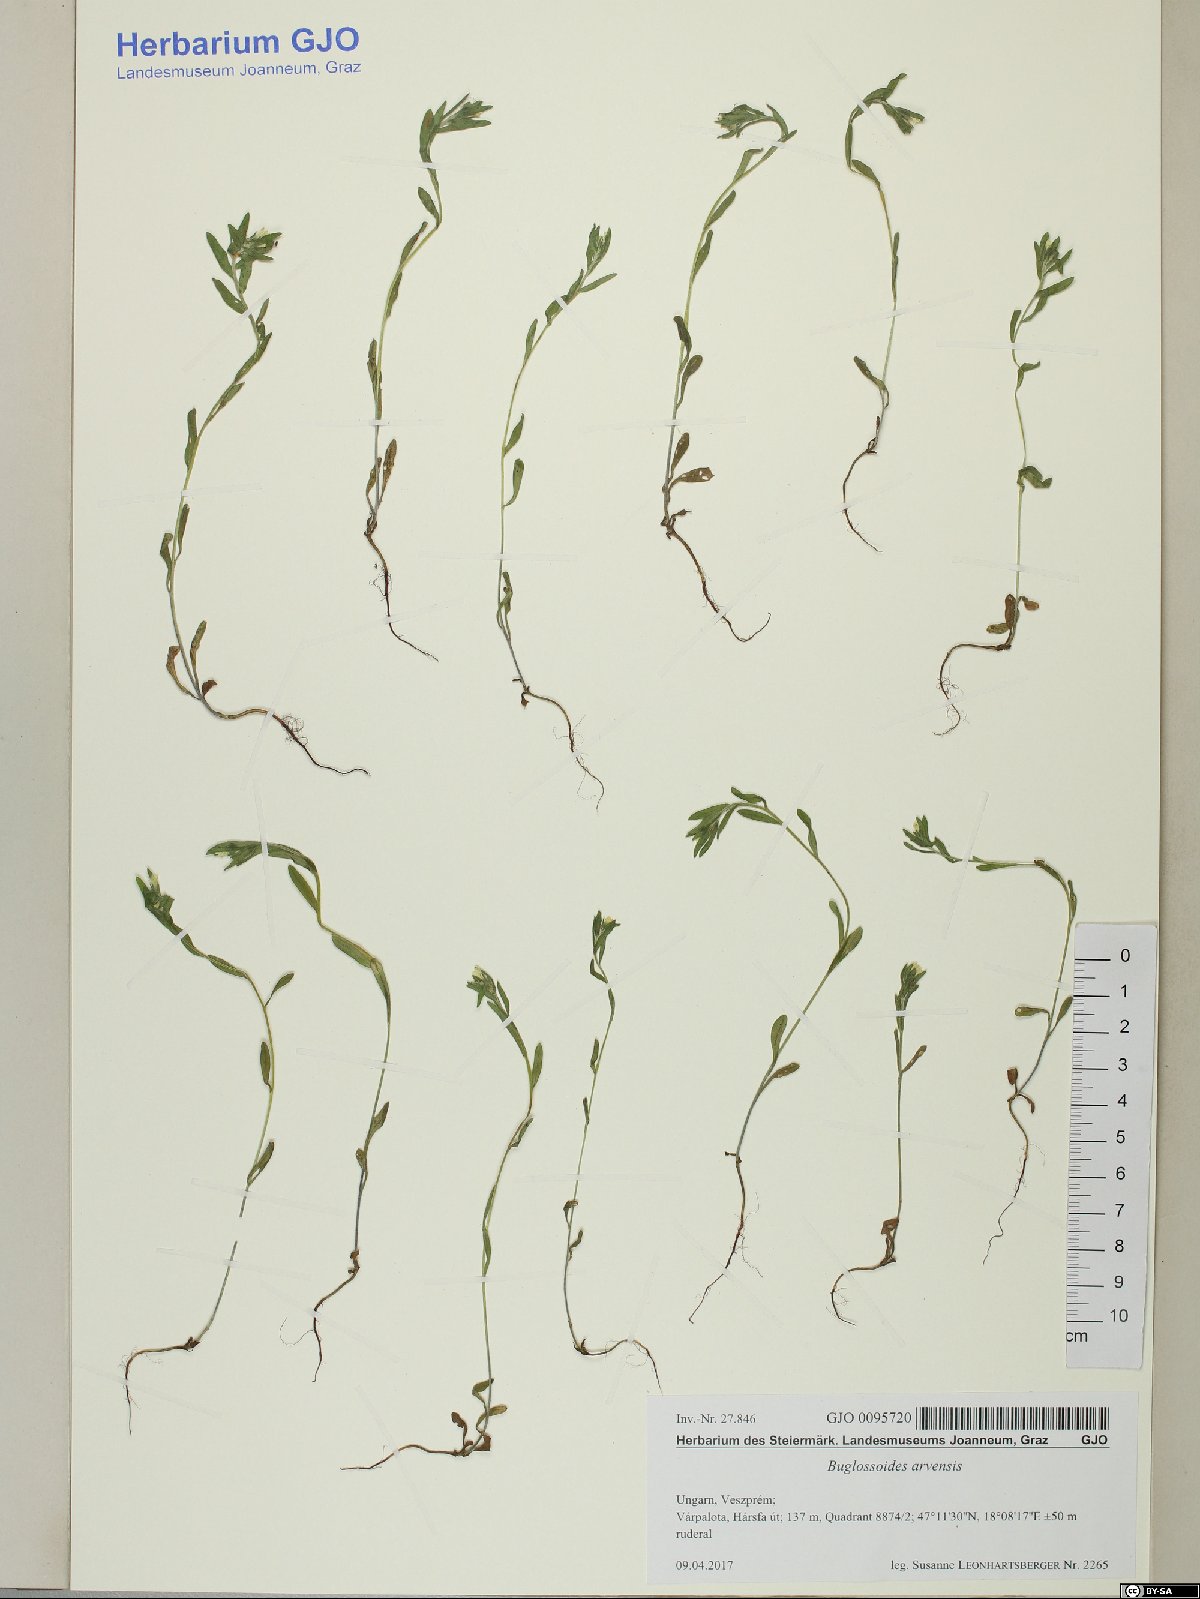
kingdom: Plantae
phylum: Tracheophyta
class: Magnoliopsida
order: Boraginales
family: Boraginaceae
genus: Buglossoides
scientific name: Buglossoides arvensis
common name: Corn gromwell
